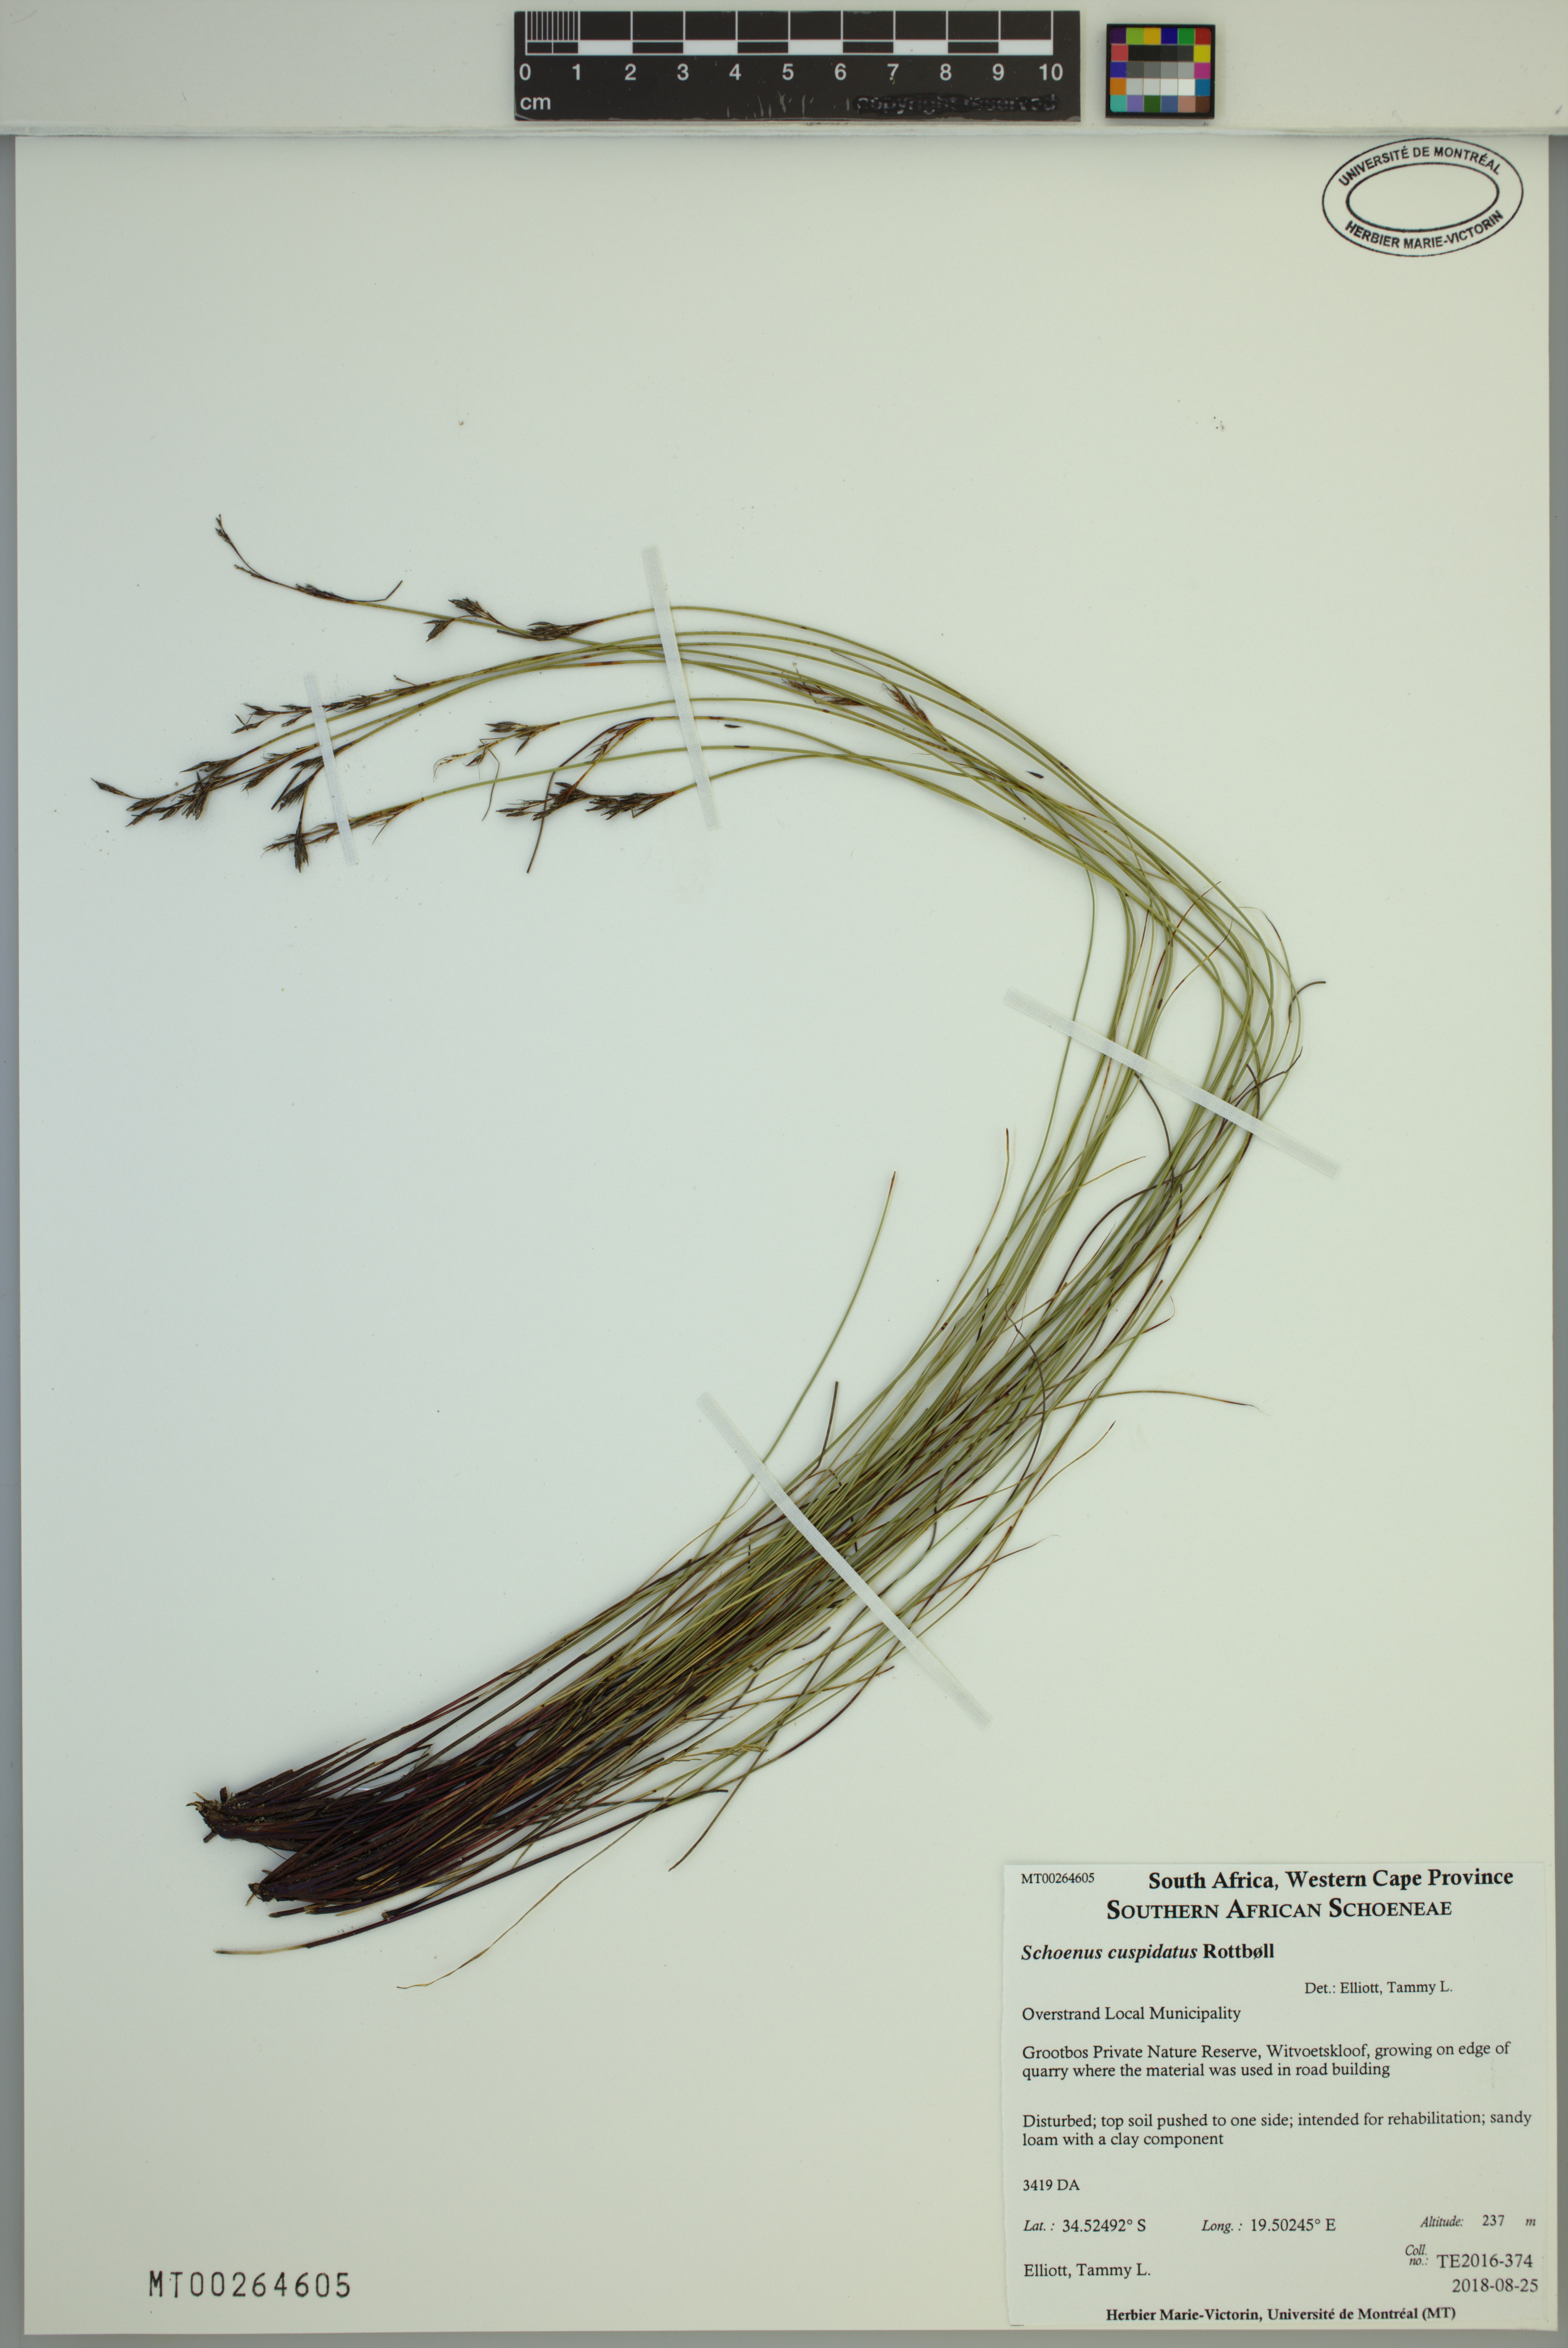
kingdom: Plantae
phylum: Tracheophyta
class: Liliopsida
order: Poales
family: Cyperaceae
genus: Schoenus
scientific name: Schoenus cuspidatus
